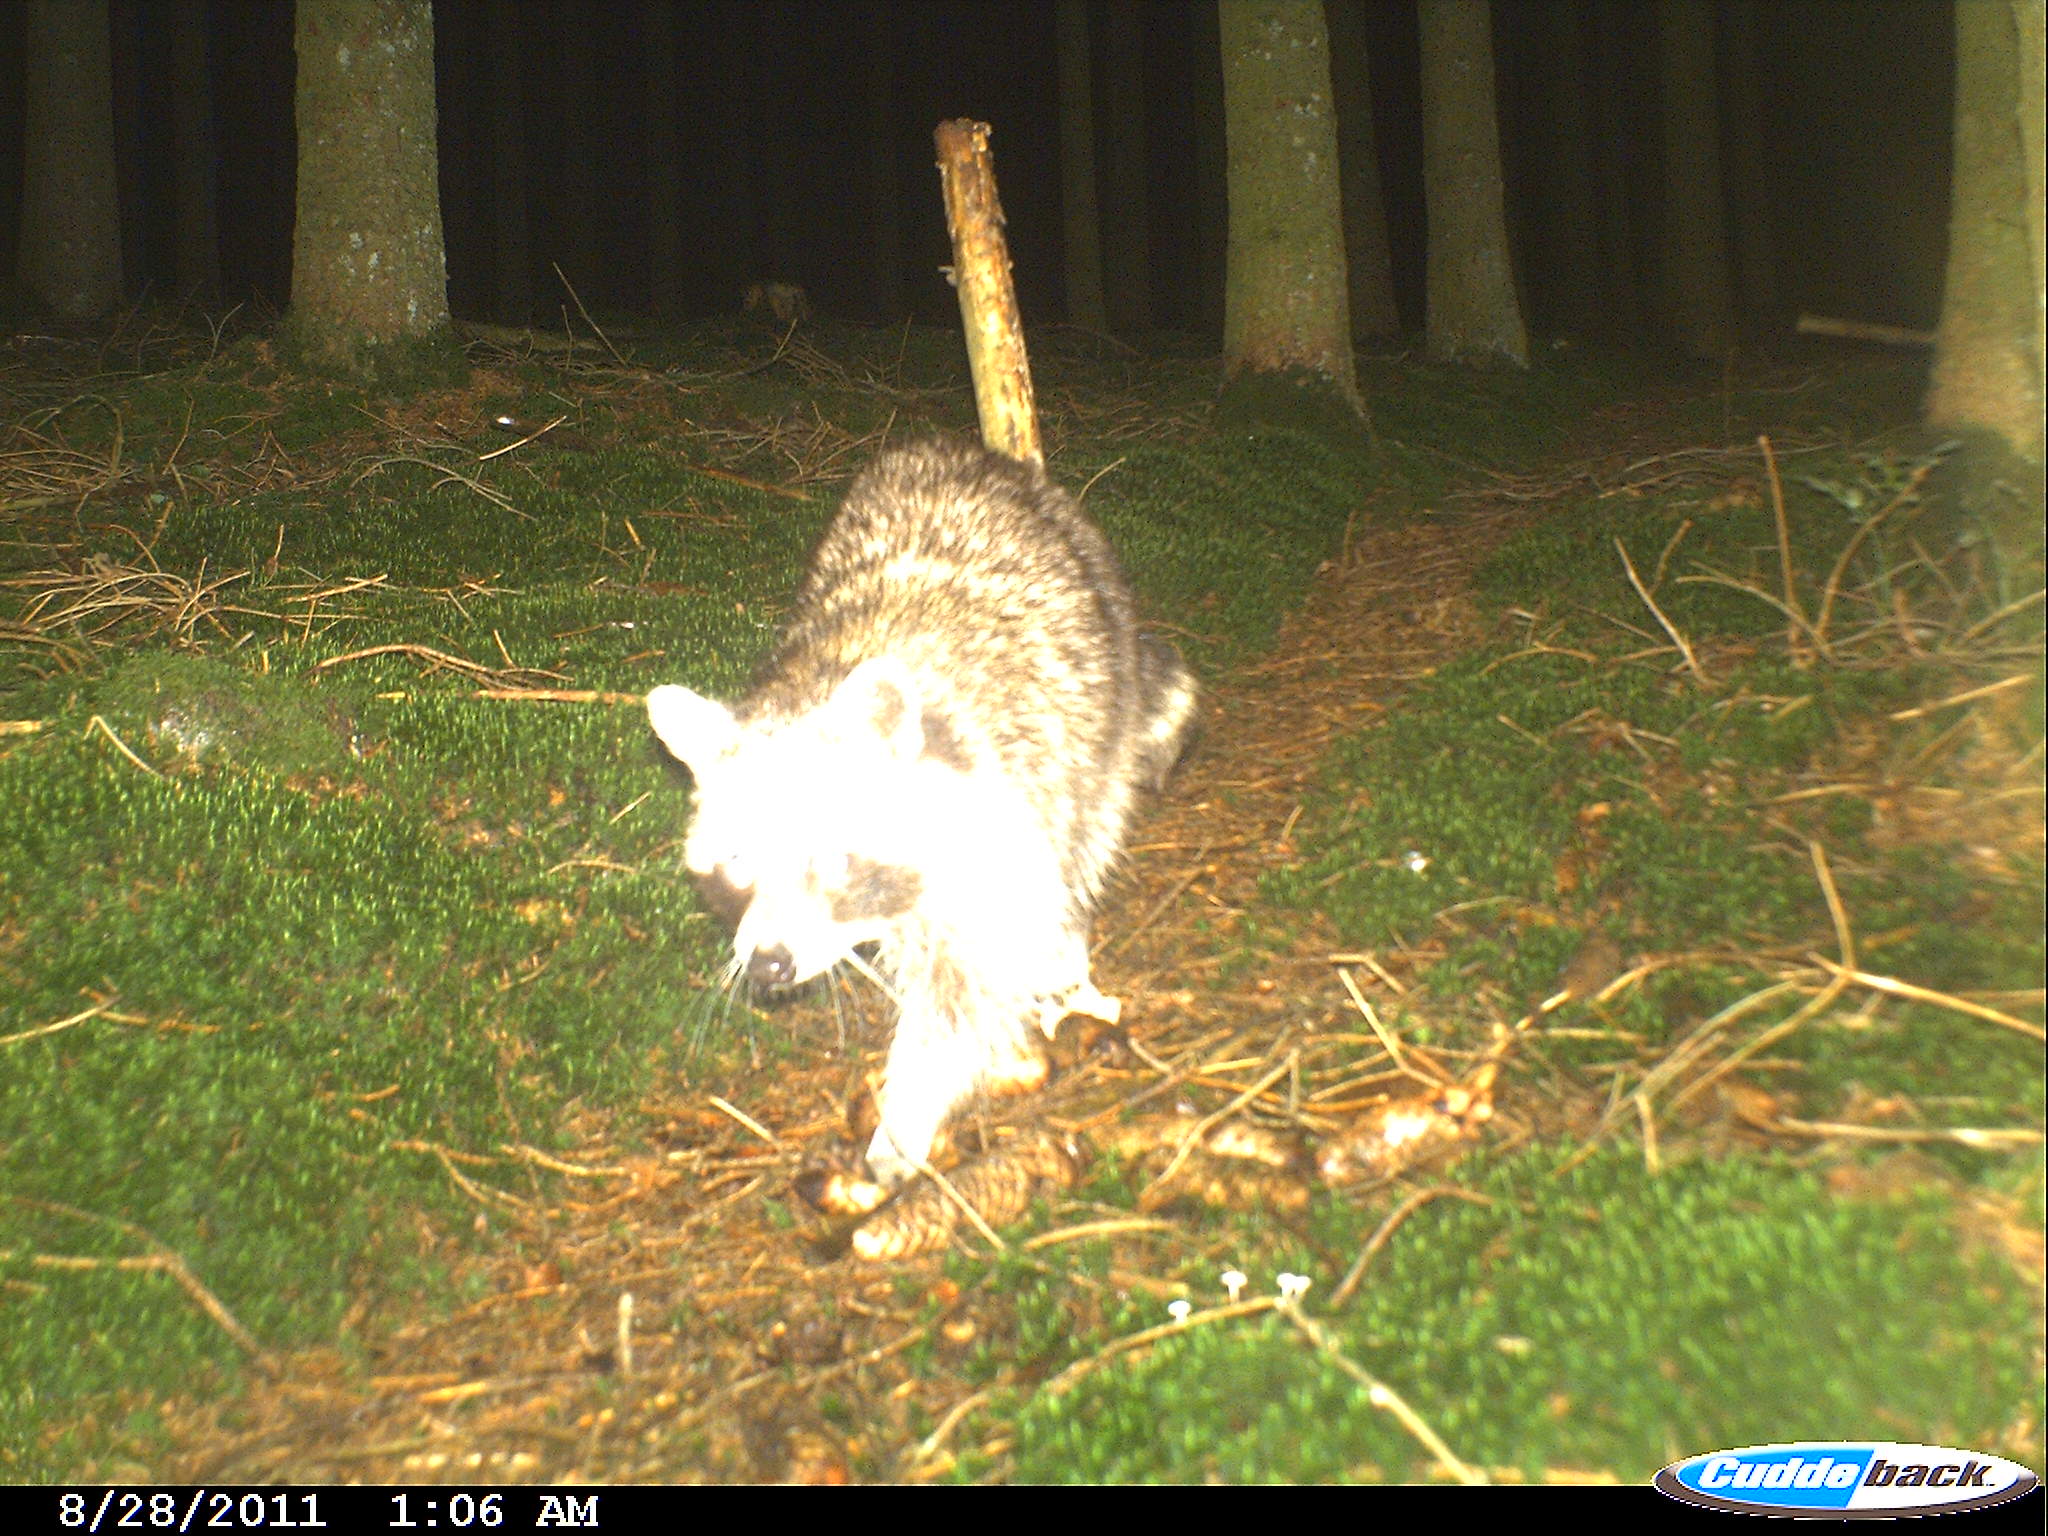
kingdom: Animalia
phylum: Chordata
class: Mammalia
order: Carnivora
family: Procyonidae
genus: Procyon
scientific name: Procyon lotor
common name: Raccoon
